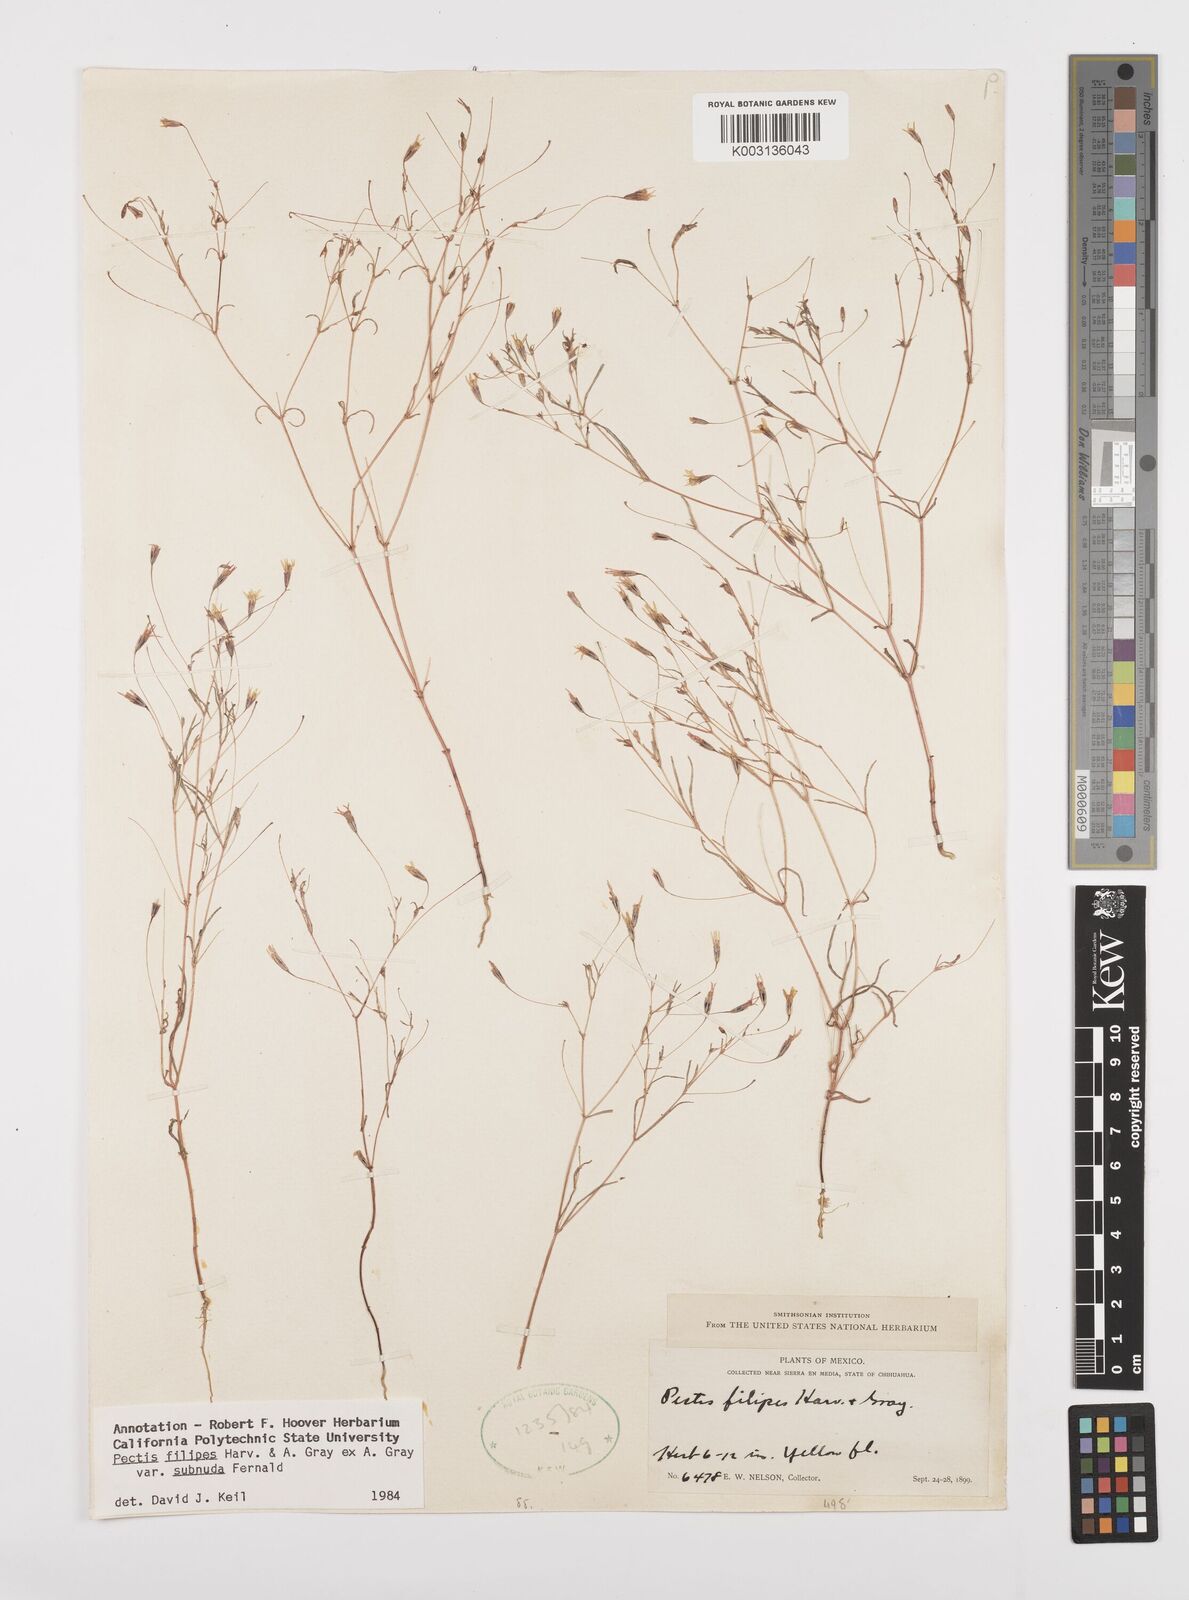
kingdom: Plantae
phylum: Tracheophyta
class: Magnoliopsida
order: Asterales
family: Asteraceae
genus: Pectis
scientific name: Pectis filipes
